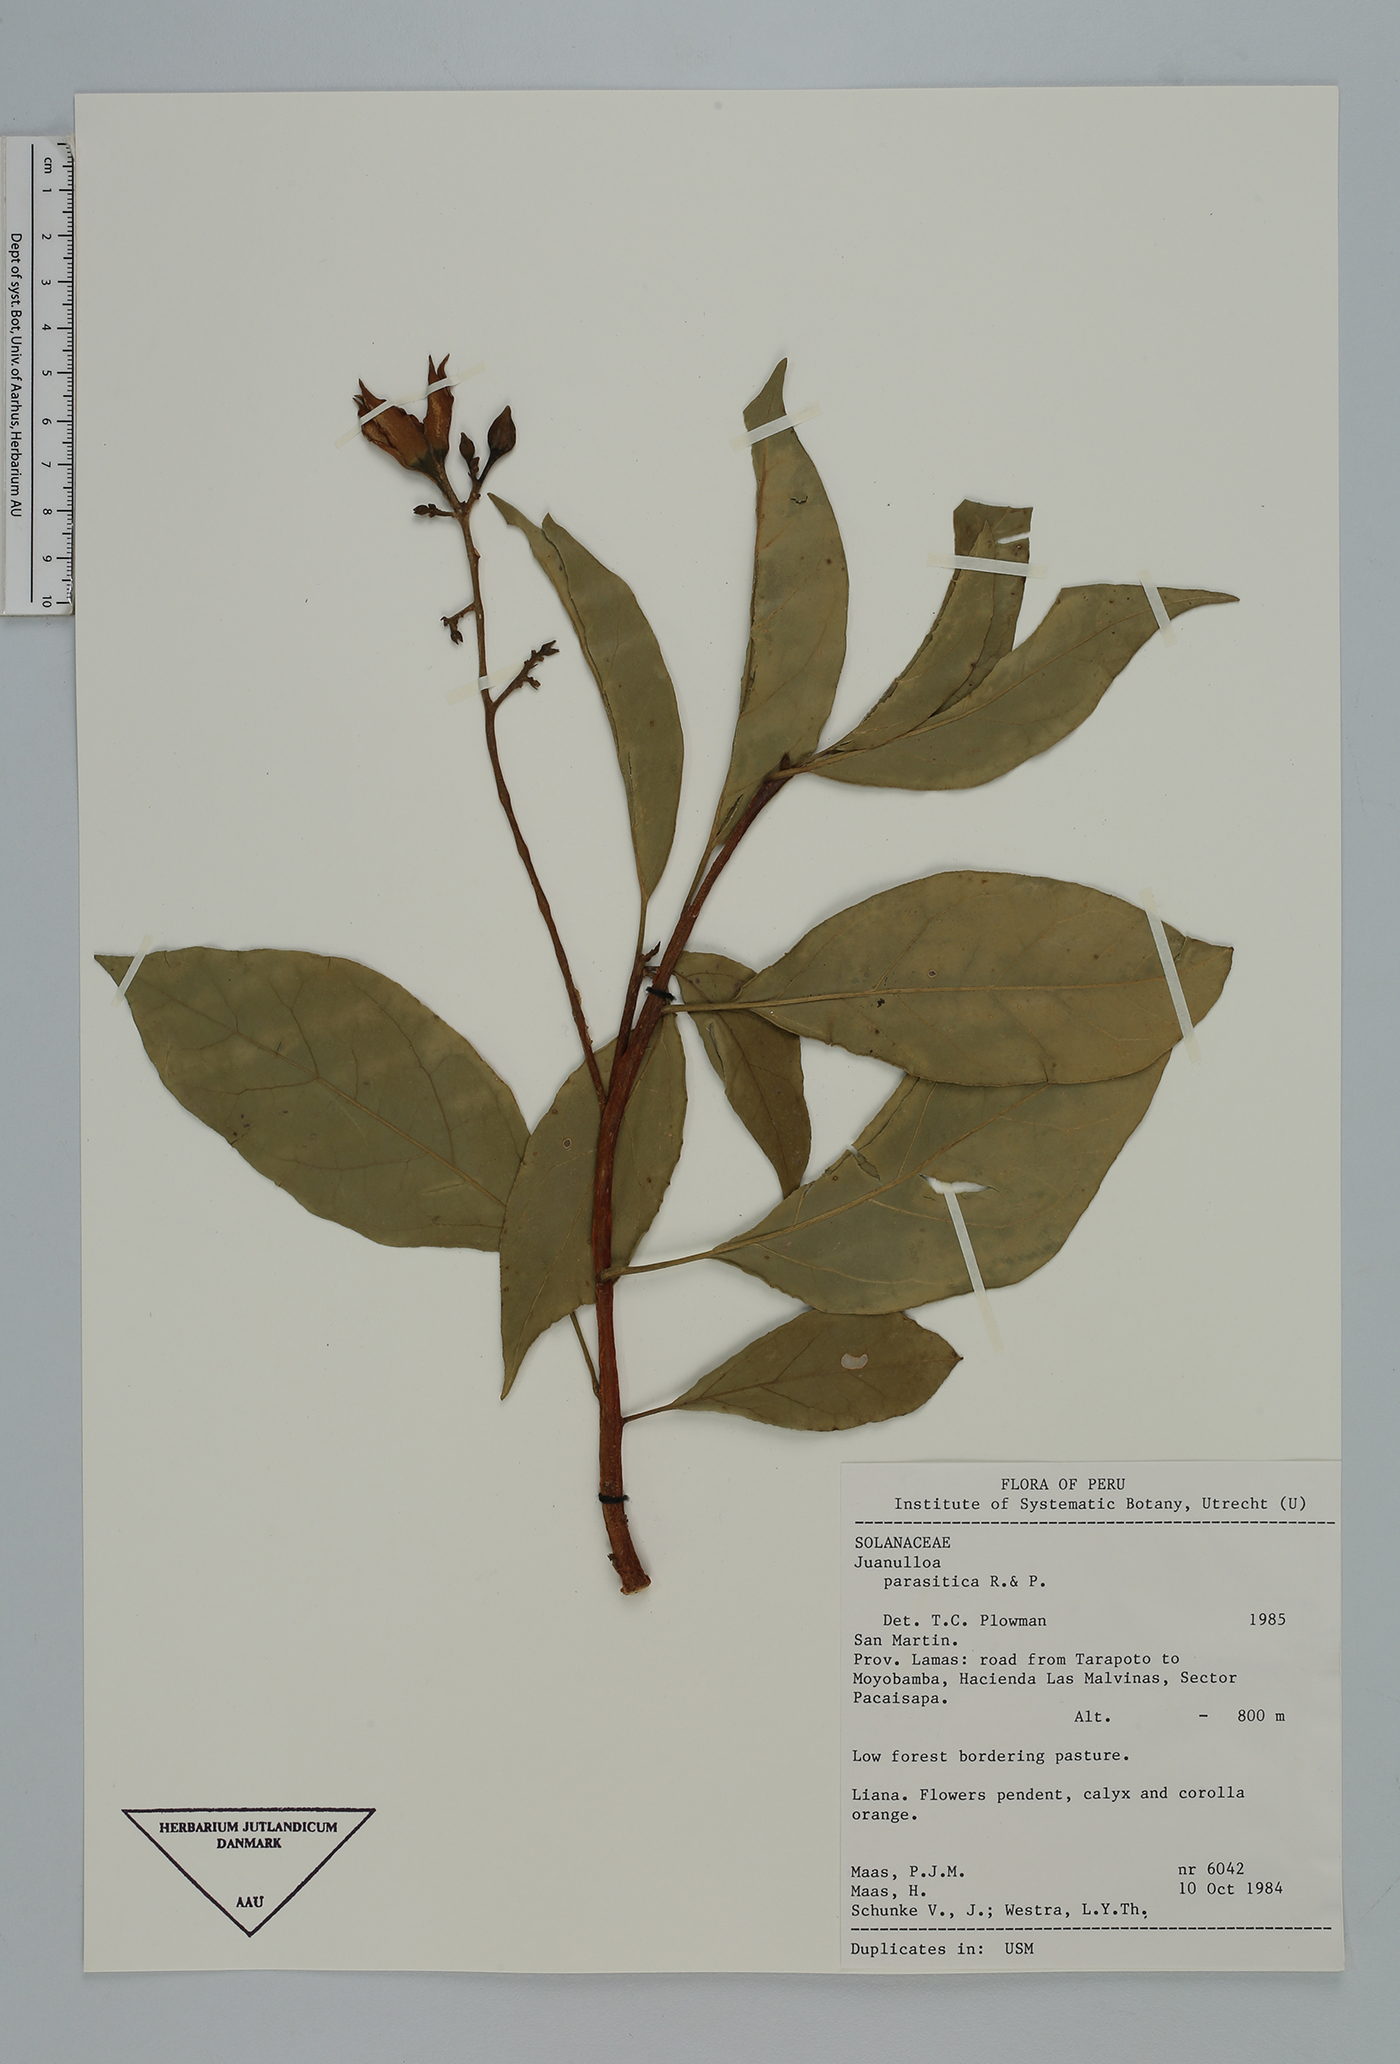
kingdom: Plantae
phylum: Tracheophyta
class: Magnoliopsida
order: Solanales
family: Solanaceae
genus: Juanulloa
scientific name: Juanulloa parasitica
